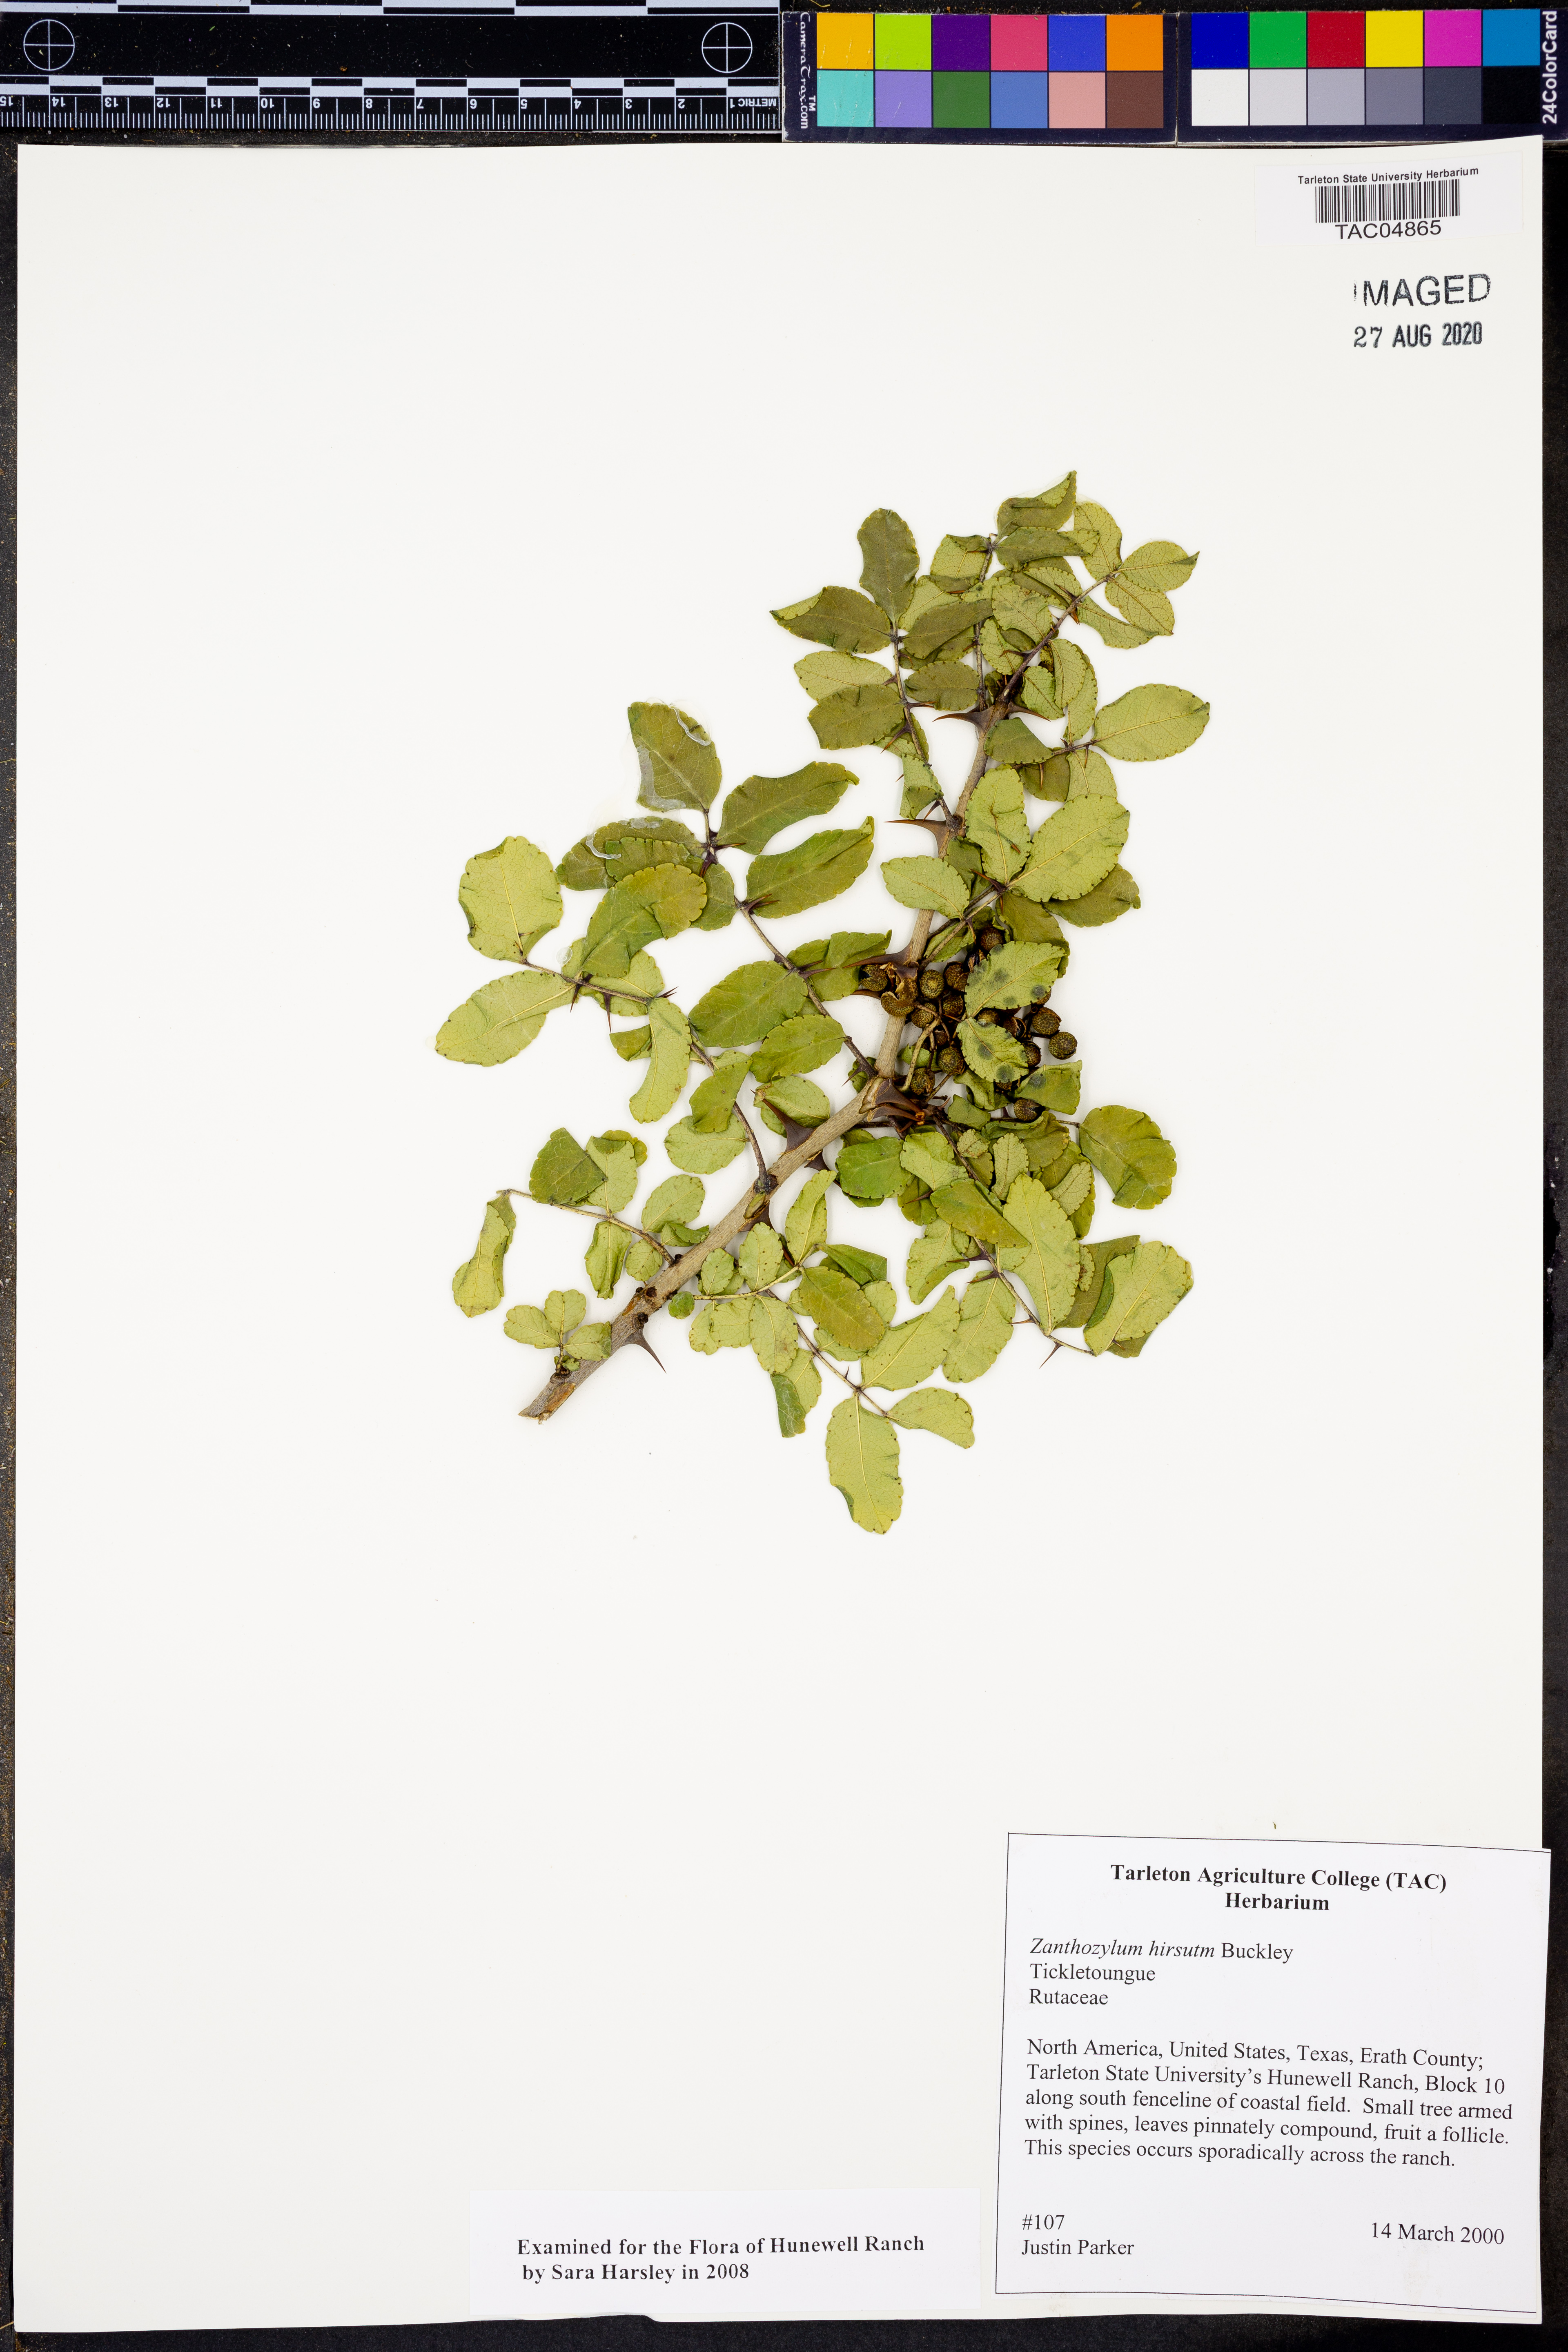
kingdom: Plantae
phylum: Tracheophyta
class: Magnoliopsida
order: Sapindales
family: Rutaceae
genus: Zanthoxylum
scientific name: Zanthoxylum clava-herculis
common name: Hercules'-club
